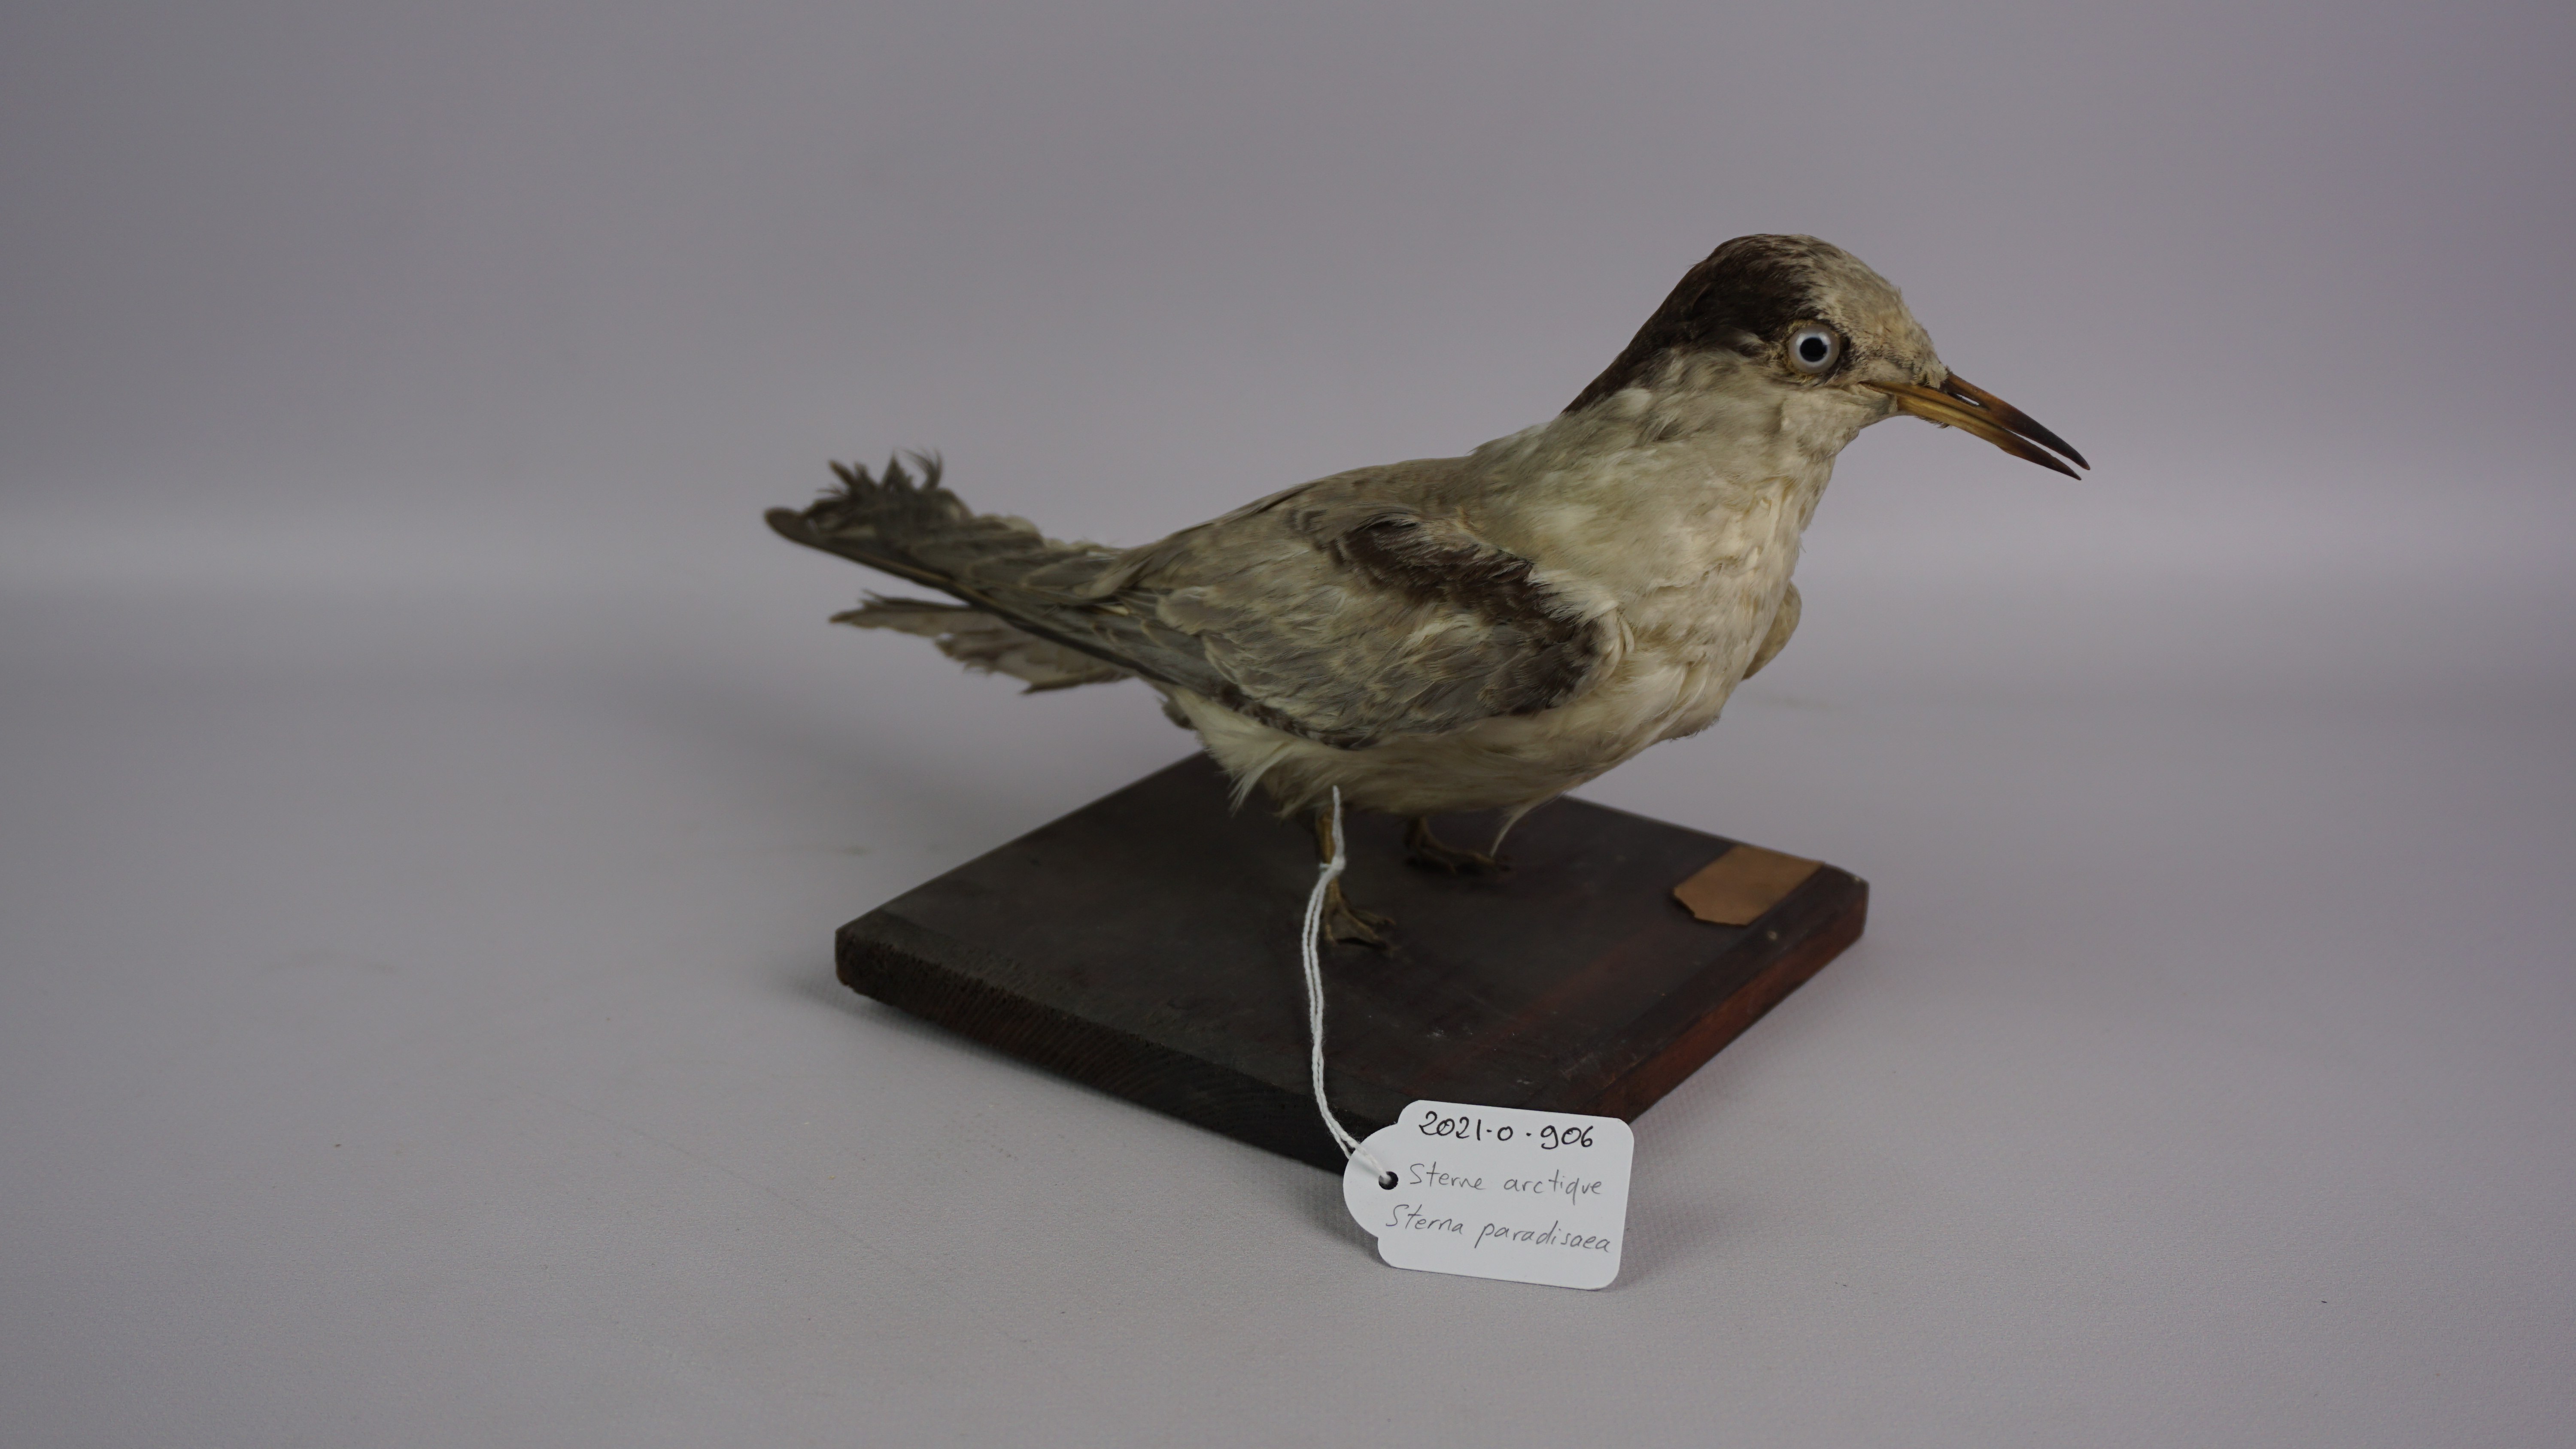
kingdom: Animalia
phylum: Chordata
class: Aves
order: Charadriiformes
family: Laridae
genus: Sterna
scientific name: Sterna paradisaea
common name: Arctic tern
